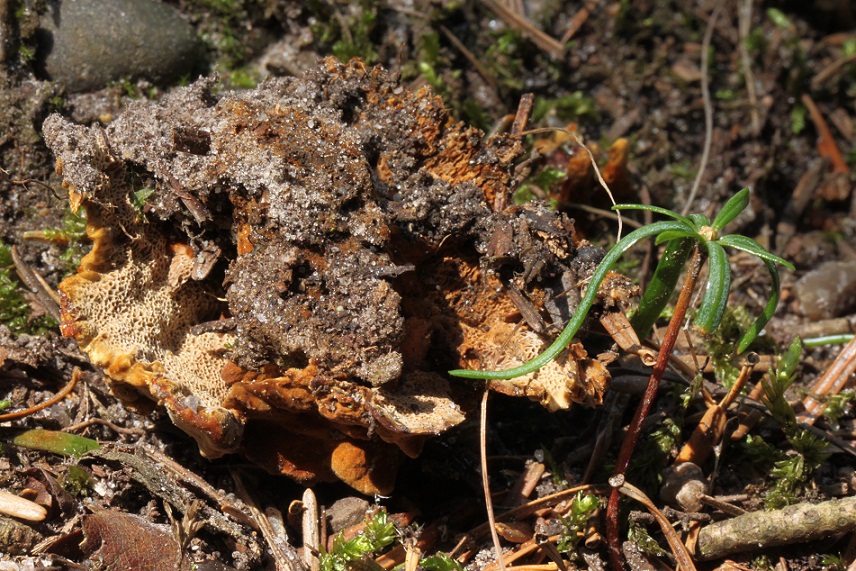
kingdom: Fungi
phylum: Basidiomycota
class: Agaricomycetes
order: Hymenochaetales
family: Hymenochaetaceae
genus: Coltricia
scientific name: Coltricia confluens
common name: park-sandporesvamp
